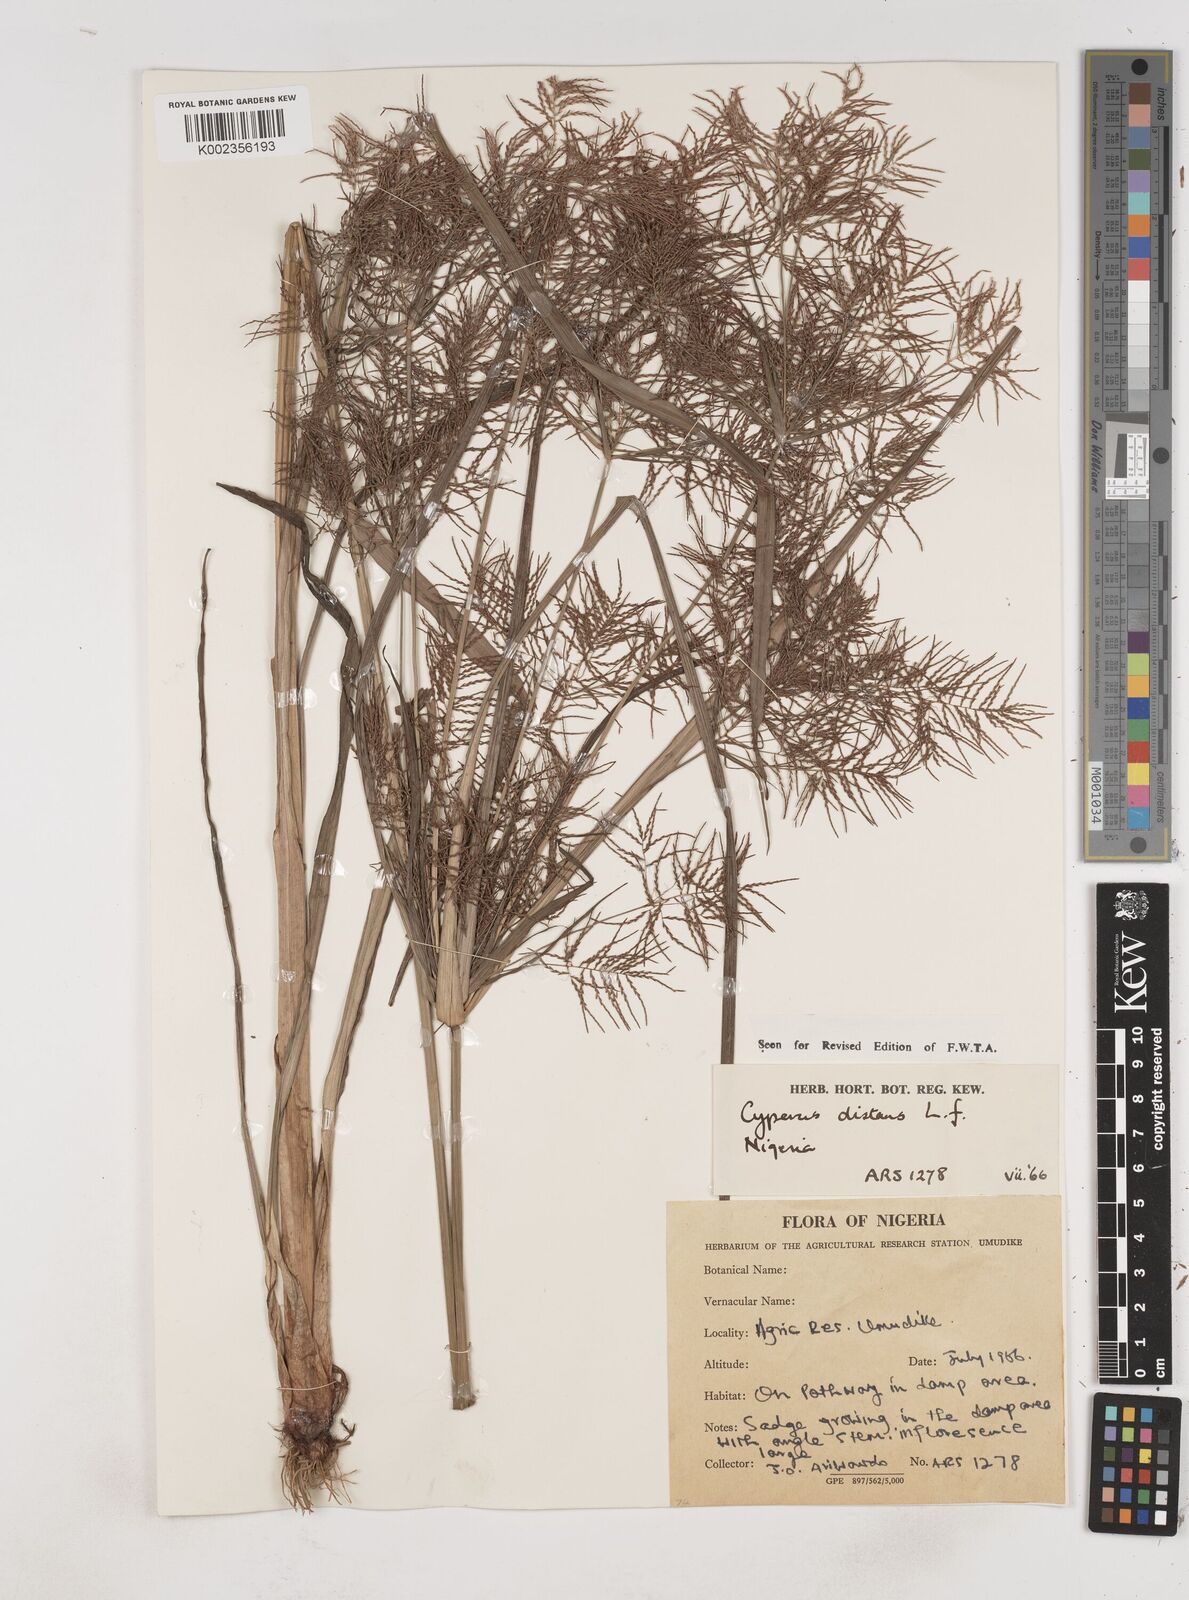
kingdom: Plantae
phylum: Tracheophyta
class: Liliopsida
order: Poales
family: Cyperaceae
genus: Cyperus
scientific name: Cyperus distans
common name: Slender cyperus
